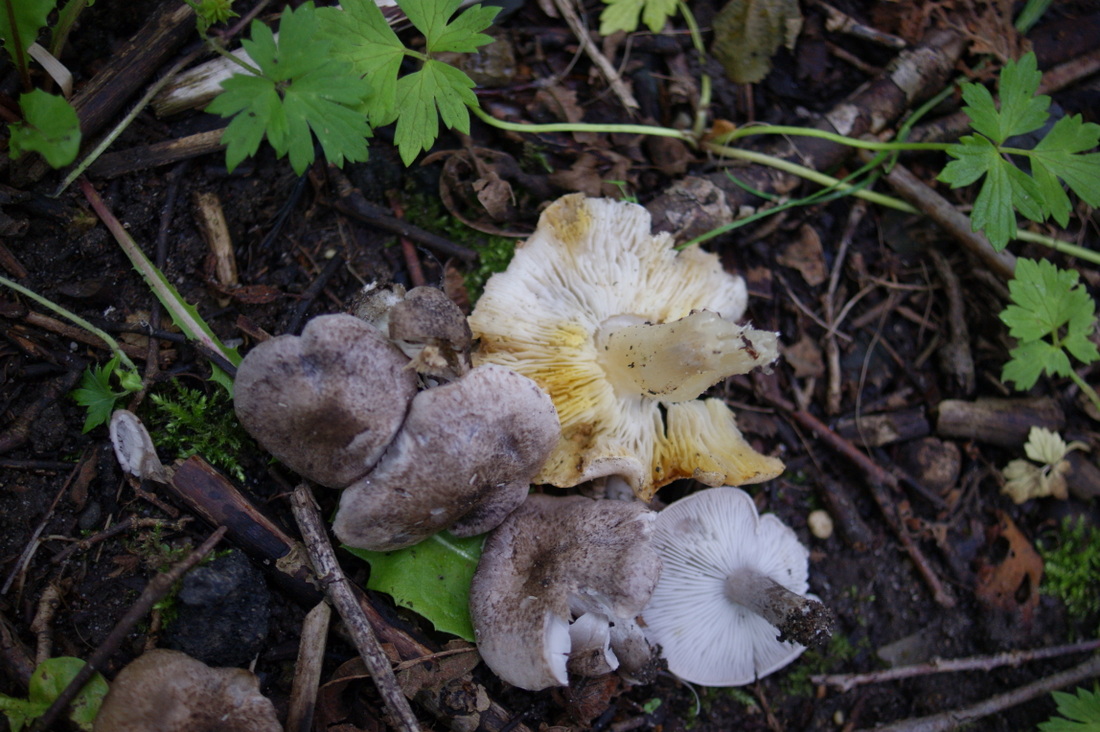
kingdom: Fungi
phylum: Basidiomycota
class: Agaricomycetes
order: Agaricales
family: Tricholomataceae
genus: Tricholoma
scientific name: Tricholoma scalpturatum
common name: gulplettet ridderhat
